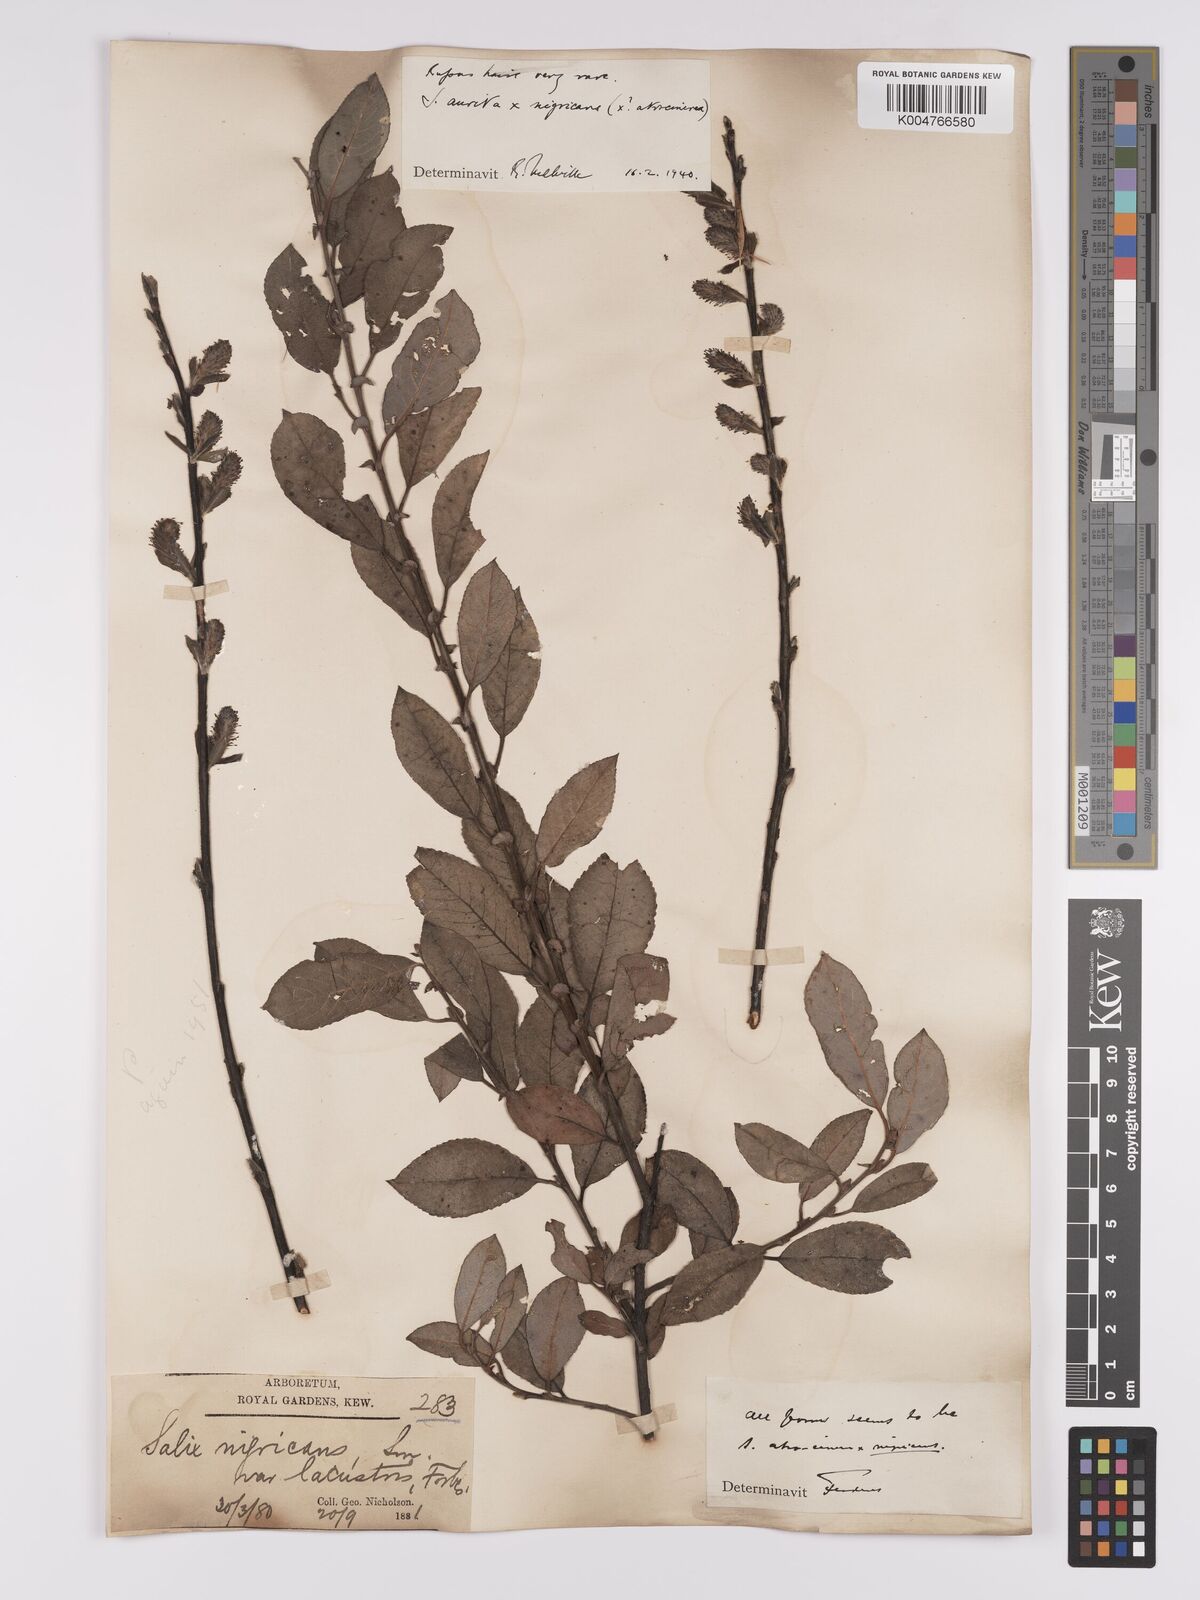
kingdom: Plantae
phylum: Tracheophyta
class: Magnoliopsida
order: Malpighiales
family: Salicaceae
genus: Salix
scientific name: Salix
